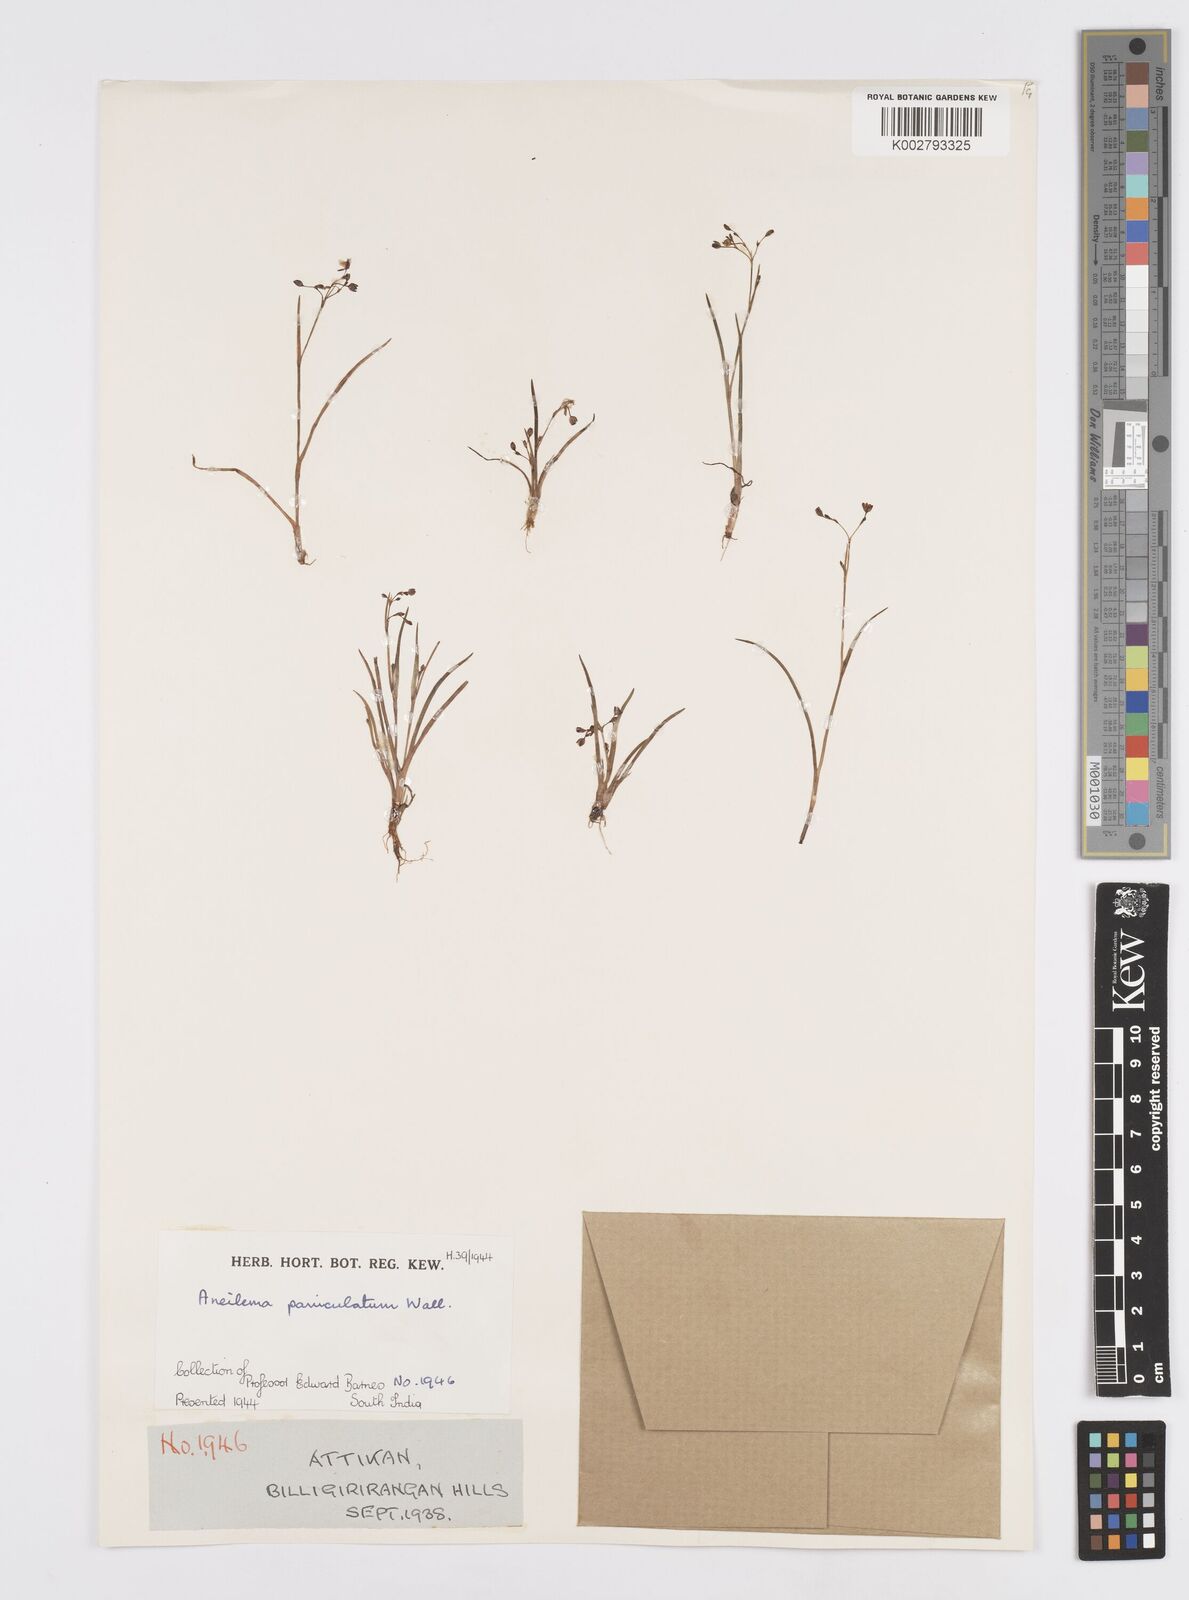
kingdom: Plantae
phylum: Tracheophyta
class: Liliopsida
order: Commelinales
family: Commelinaceae
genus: Murdannia
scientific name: Murdannia semiteres
